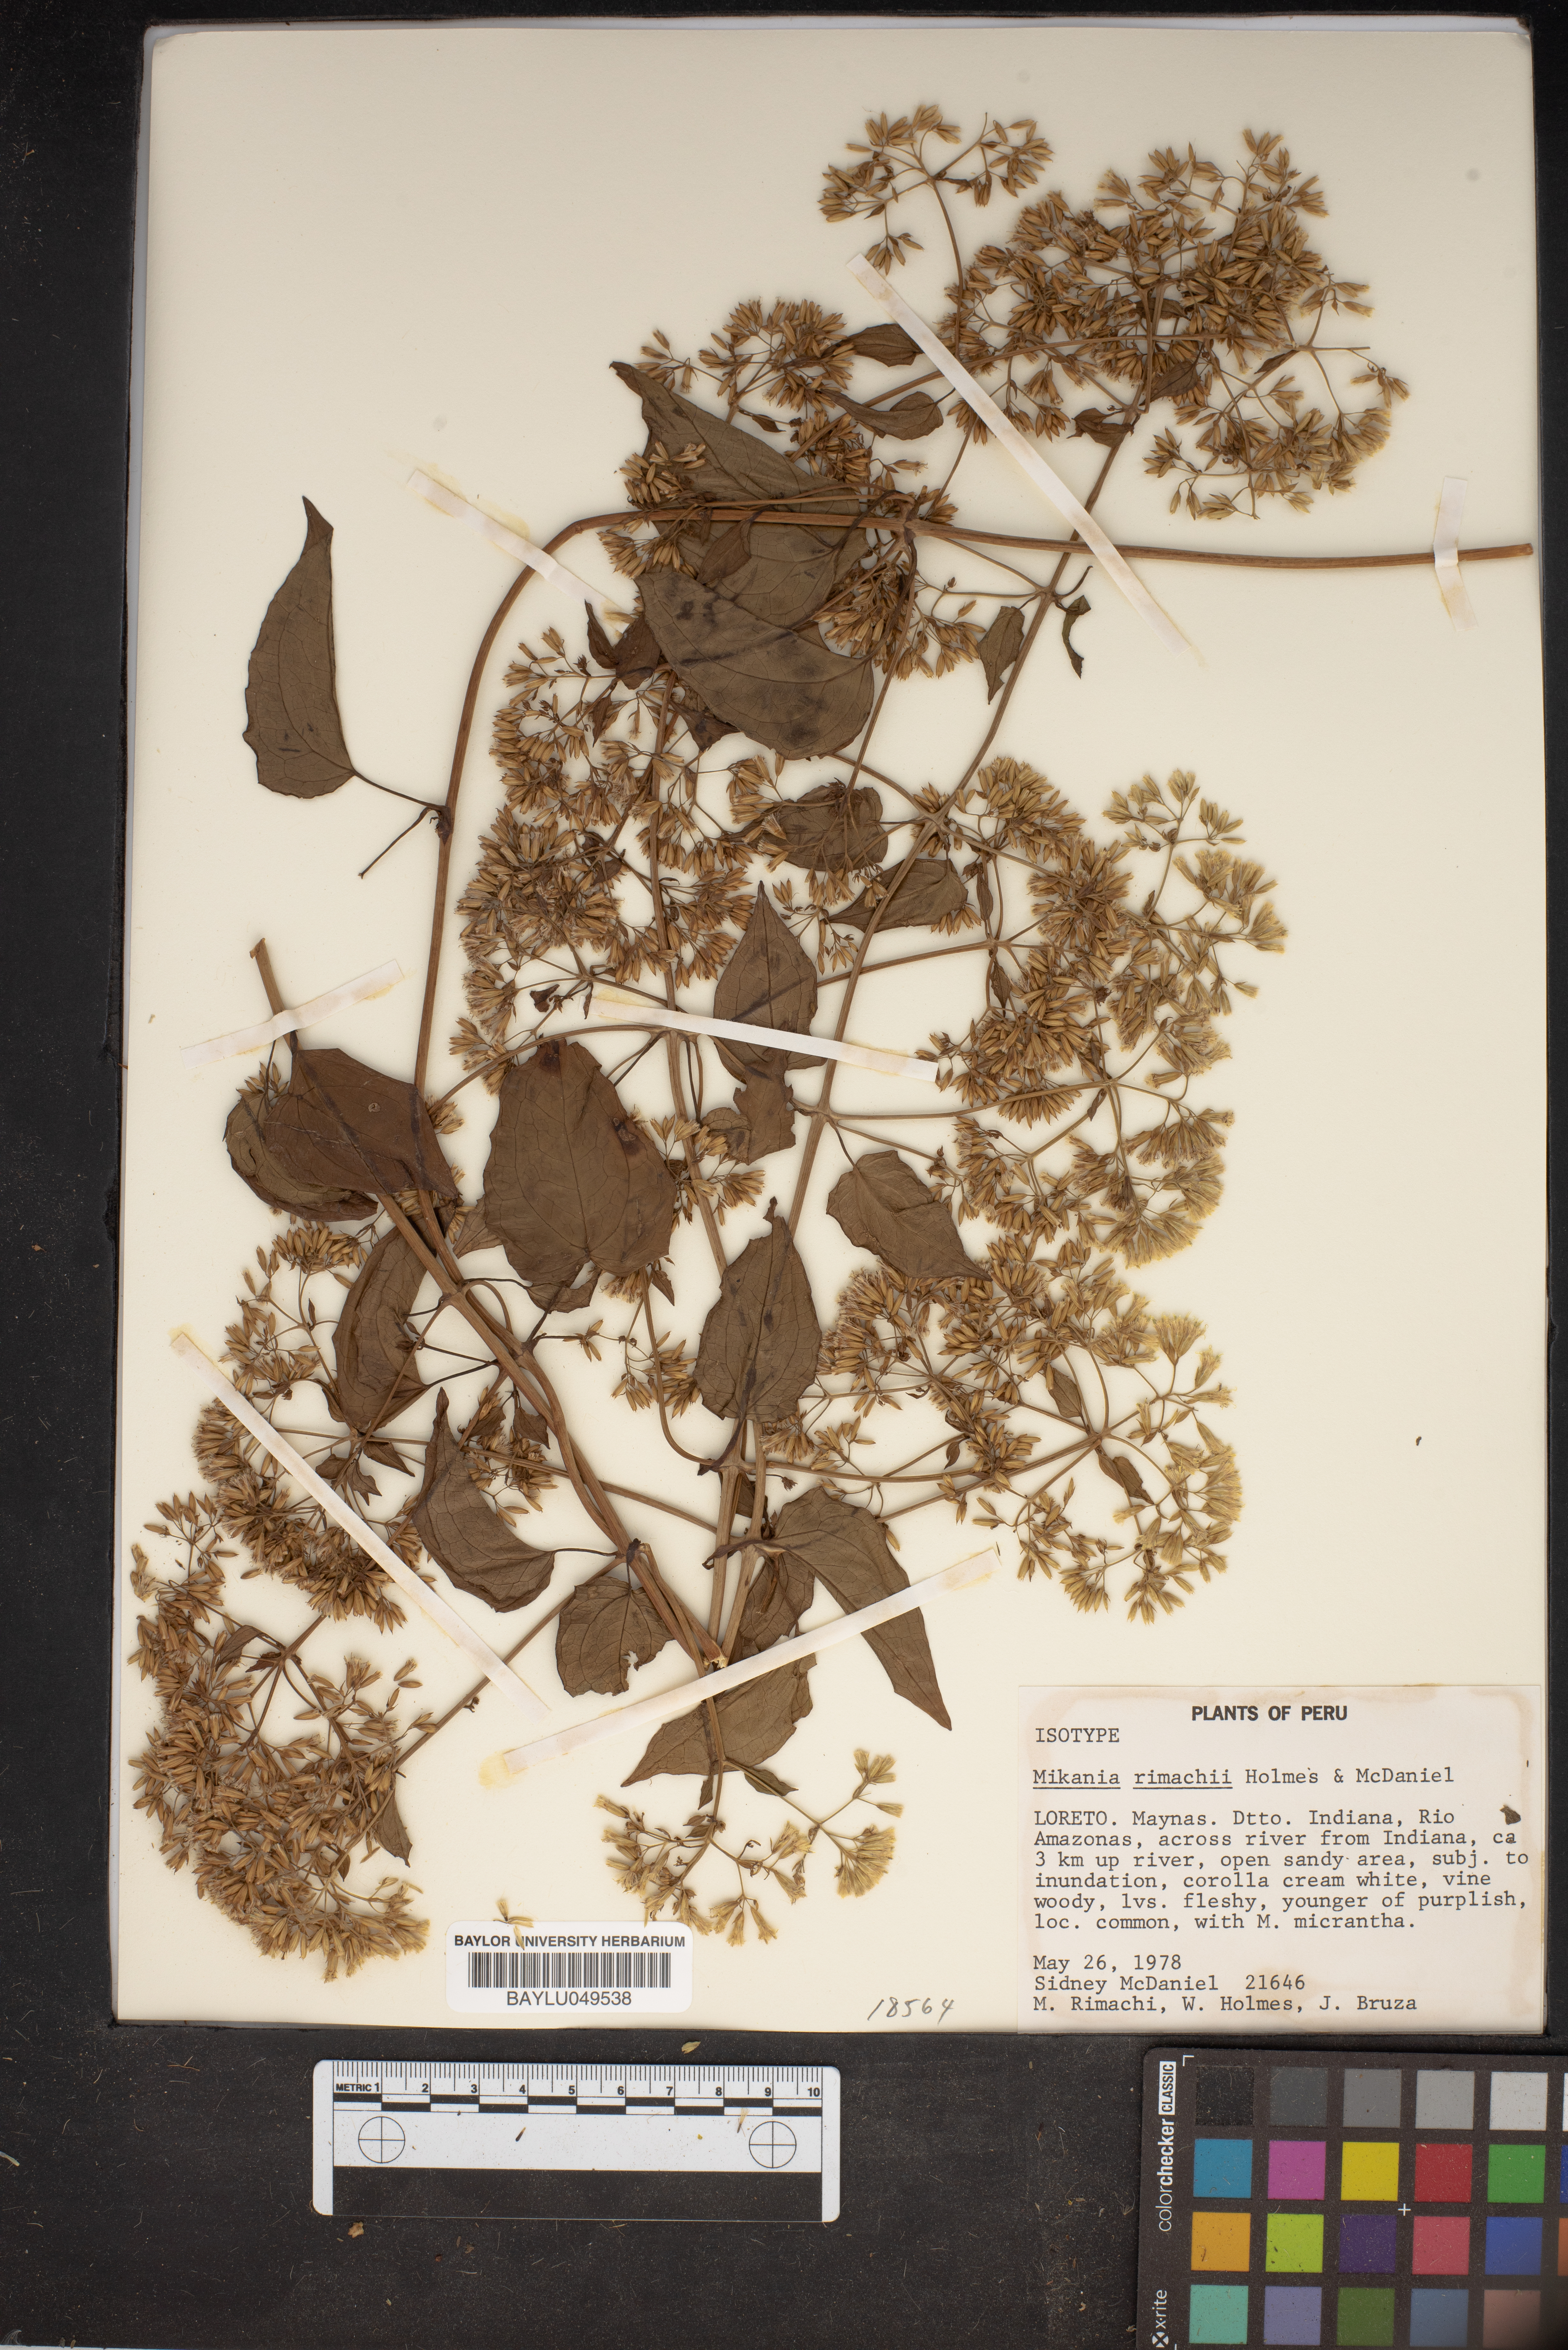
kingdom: Plantae
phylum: Tracheophyta
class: Magnoliopsida
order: Asterales
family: Asteraceae
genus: Mikania
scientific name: Mikania rimachii
